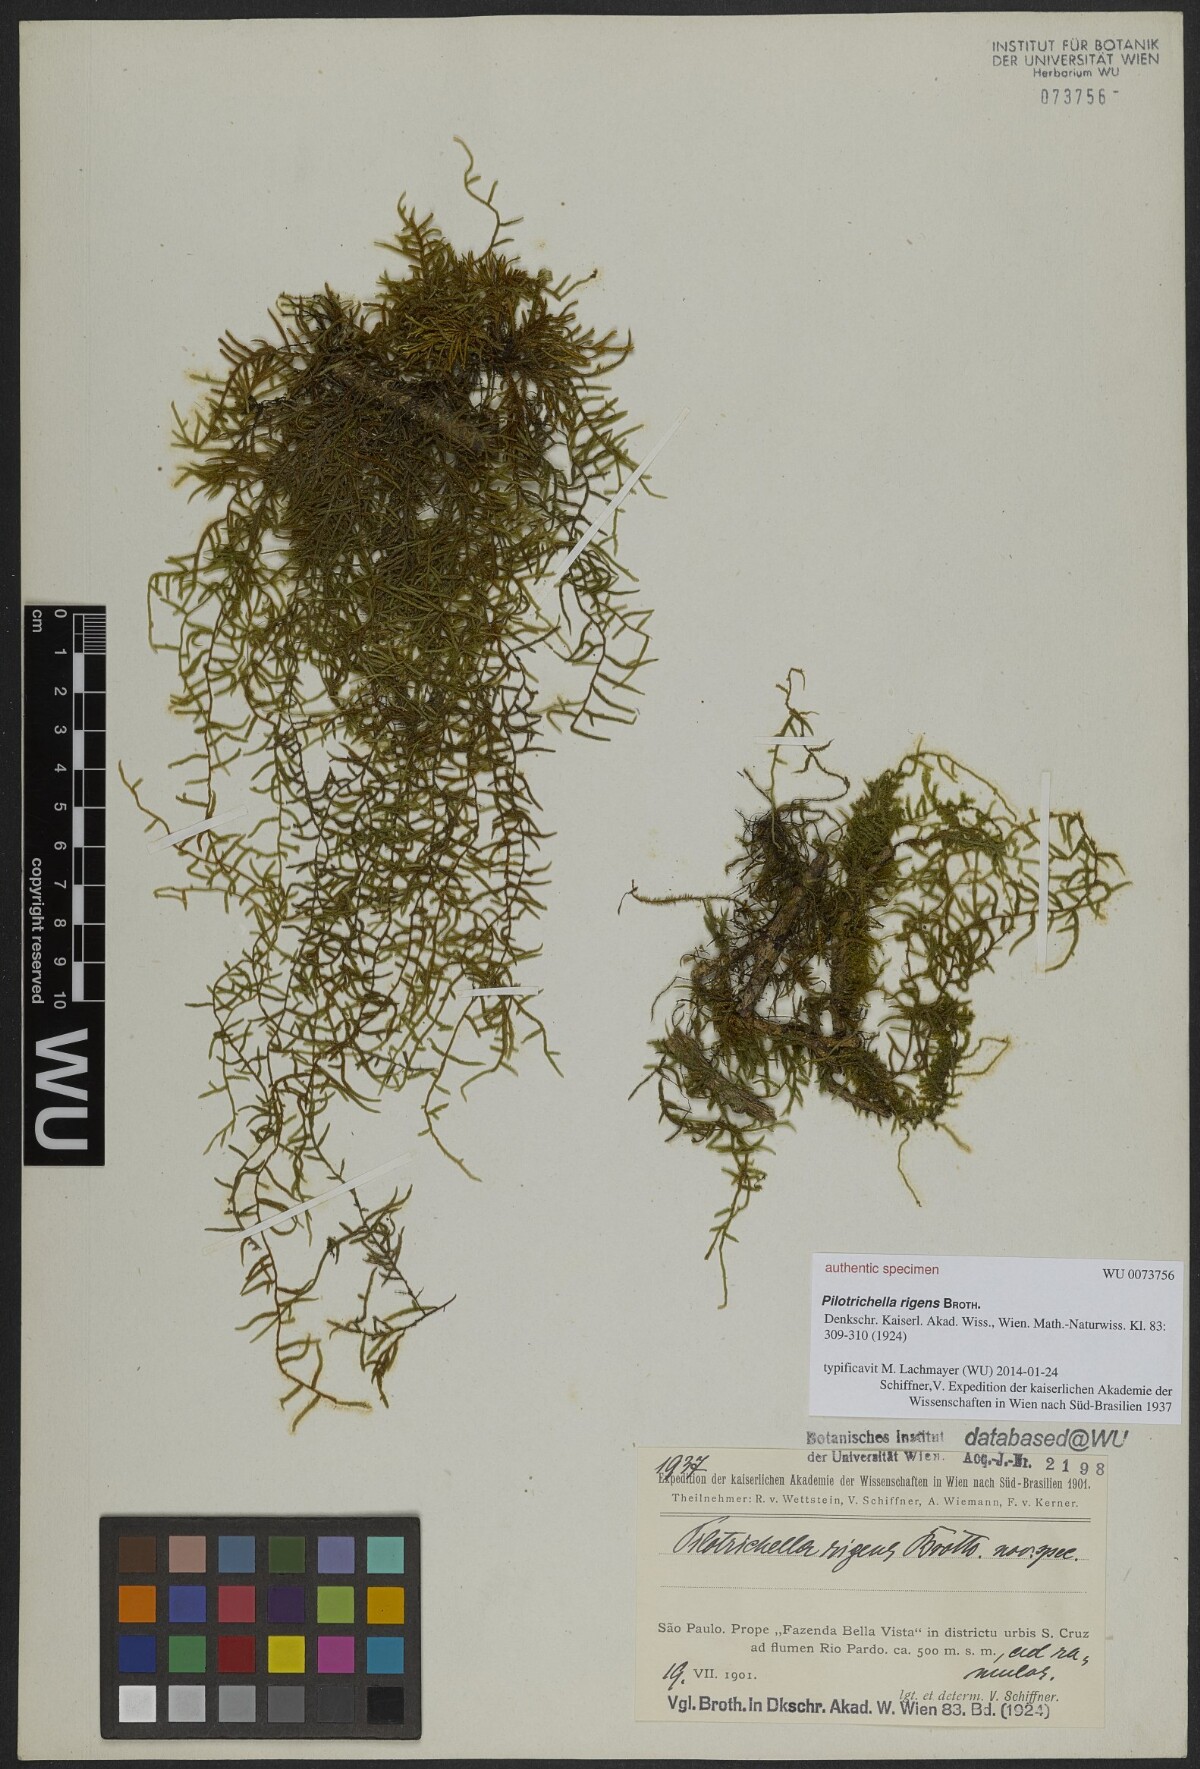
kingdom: Plantae
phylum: Bryophyta
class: Bryopsida
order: Hypnales
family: Orthostichellaceae
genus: Orthostichella
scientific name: Orthostichella pachygastrella
